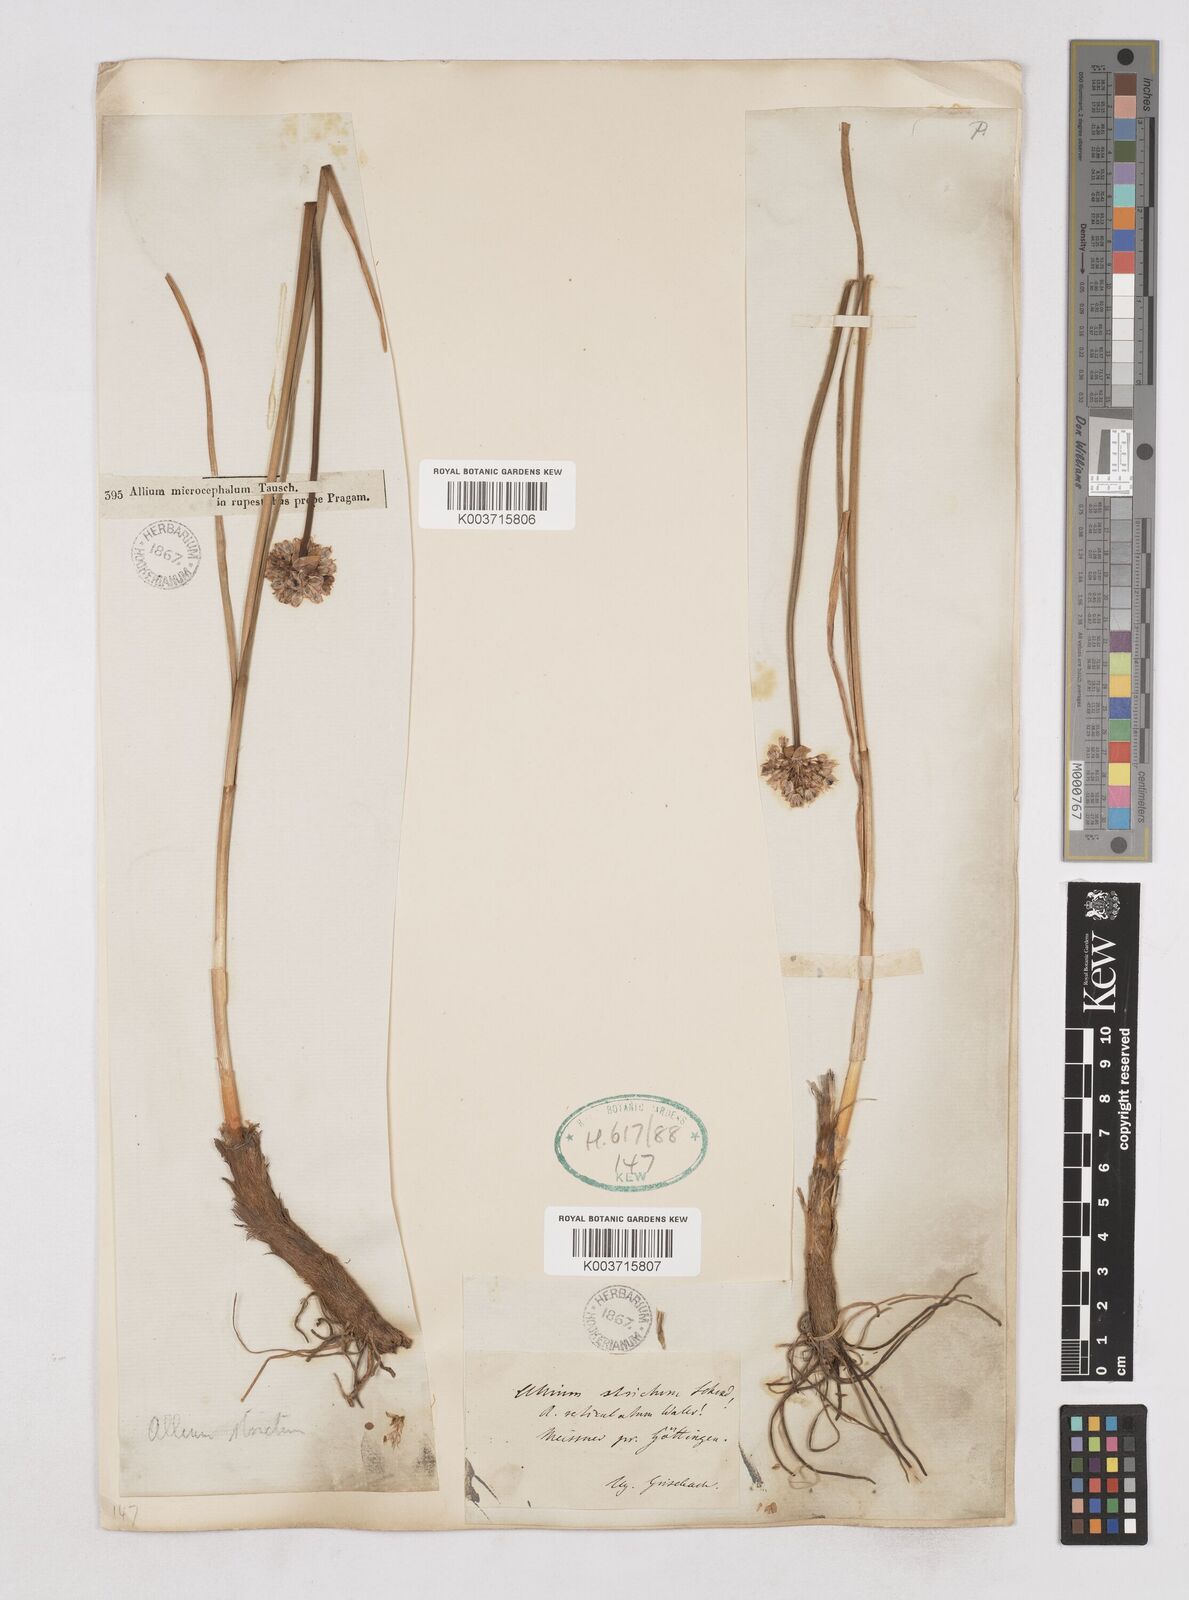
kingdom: Plantae
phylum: Tracheophyta
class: Liliopsida
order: Asparagales
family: Amaryllidaceae
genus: Allium
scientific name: Allium strictum
